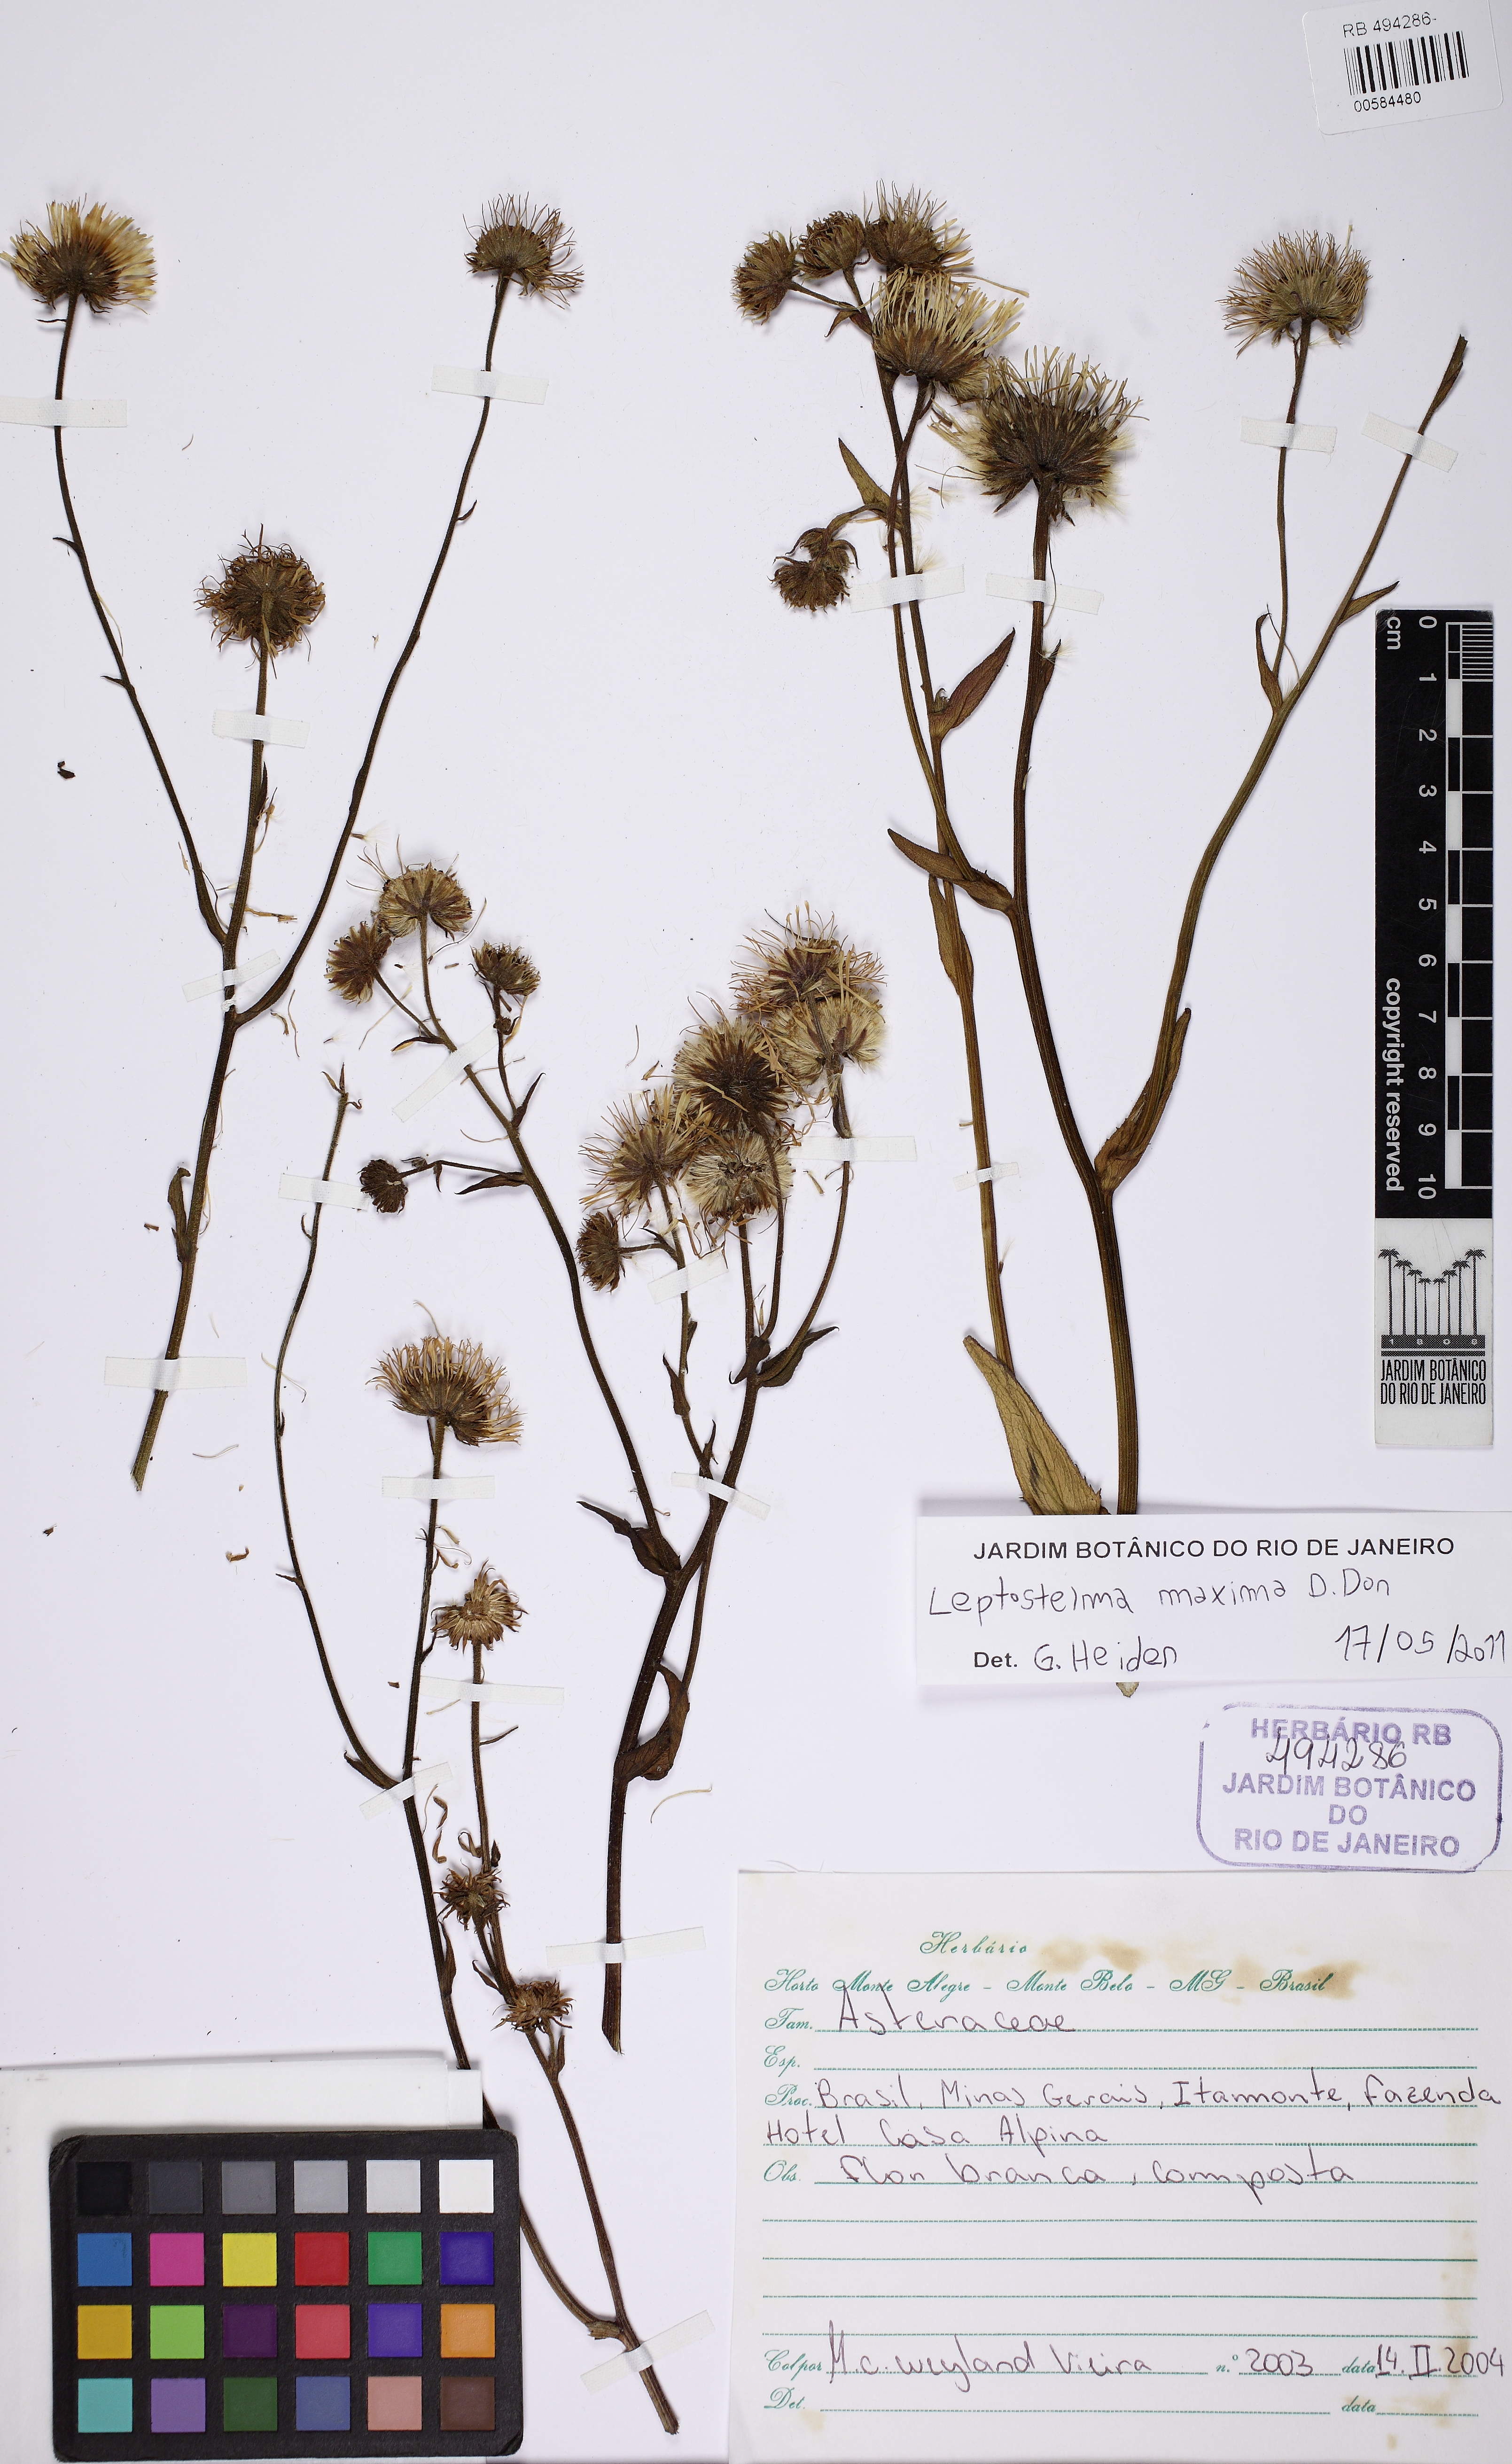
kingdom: Plantae
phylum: Tracheophyta
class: Magnoliopsida
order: Asterales
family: Asteraceae
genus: Leptostelma
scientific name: Leptostelma maxima
